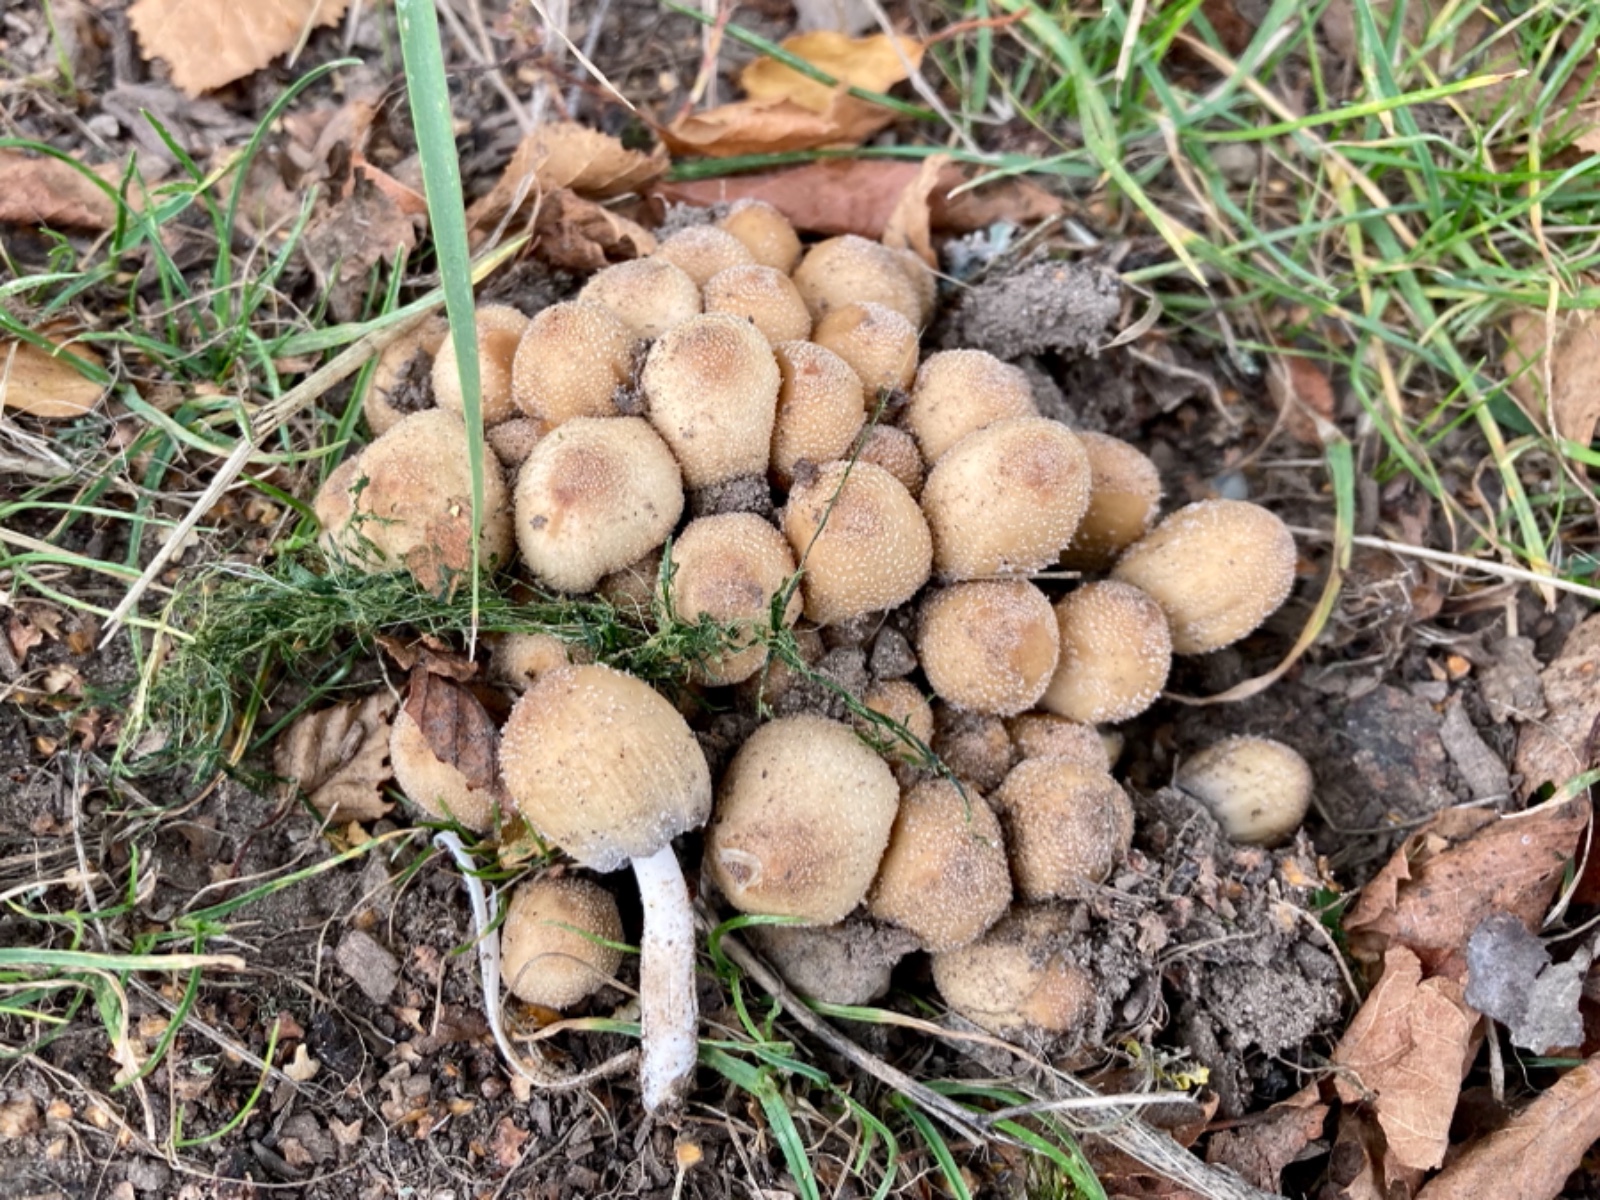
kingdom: Fungi
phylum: Basidiomycota
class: Agaricomycetes
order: Agaricales
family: Psathyrellaceae
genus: Coprinellus
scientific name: Coprinellus micaceus
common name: glimmer-blækhat
